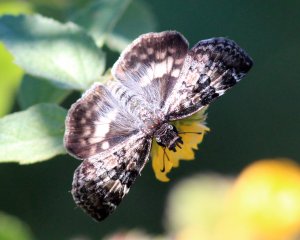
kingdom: Animalia
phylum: Arthropoda
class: Insecta
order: Lepidoptera
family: Hesperiidae
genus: Chiomara
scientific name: Chiomara asychis
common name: White-patched Skipper
